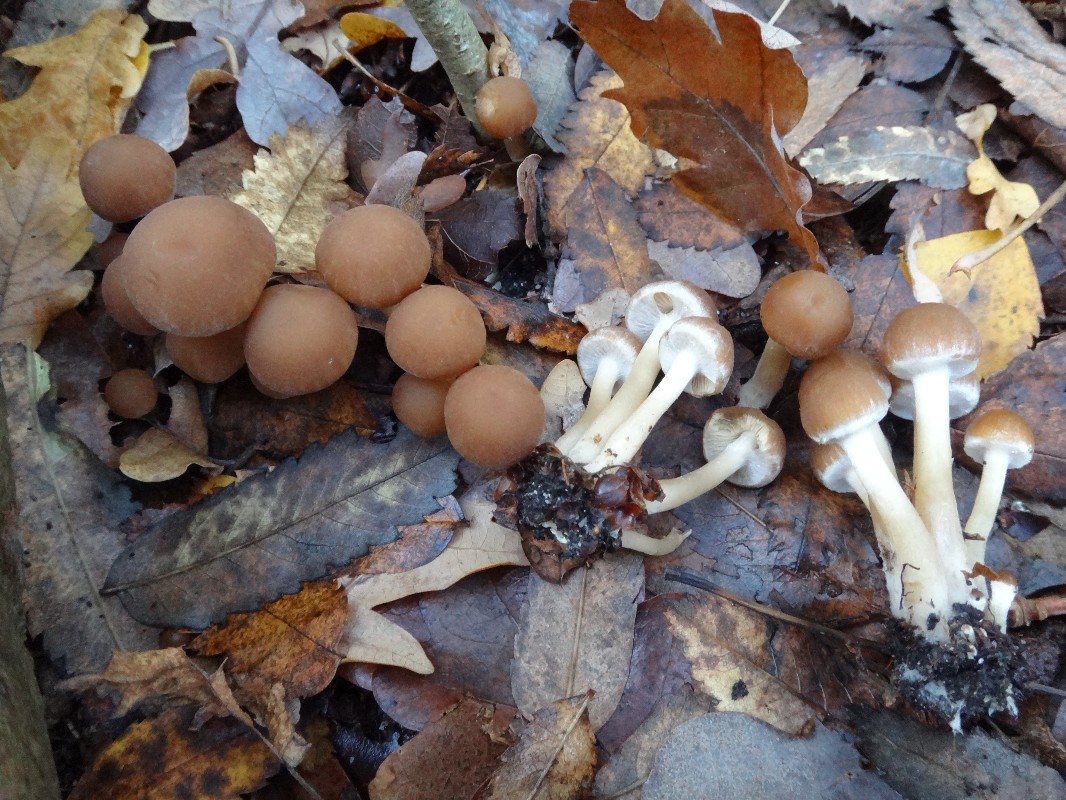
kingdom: Fungi
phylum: Basidiomycota
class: Agaricomycetes
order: Agaricales
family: Psathyrellaceae
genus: Psathyrella
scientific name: Psathyrella piluliformis
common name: lysstokket mørkhat
